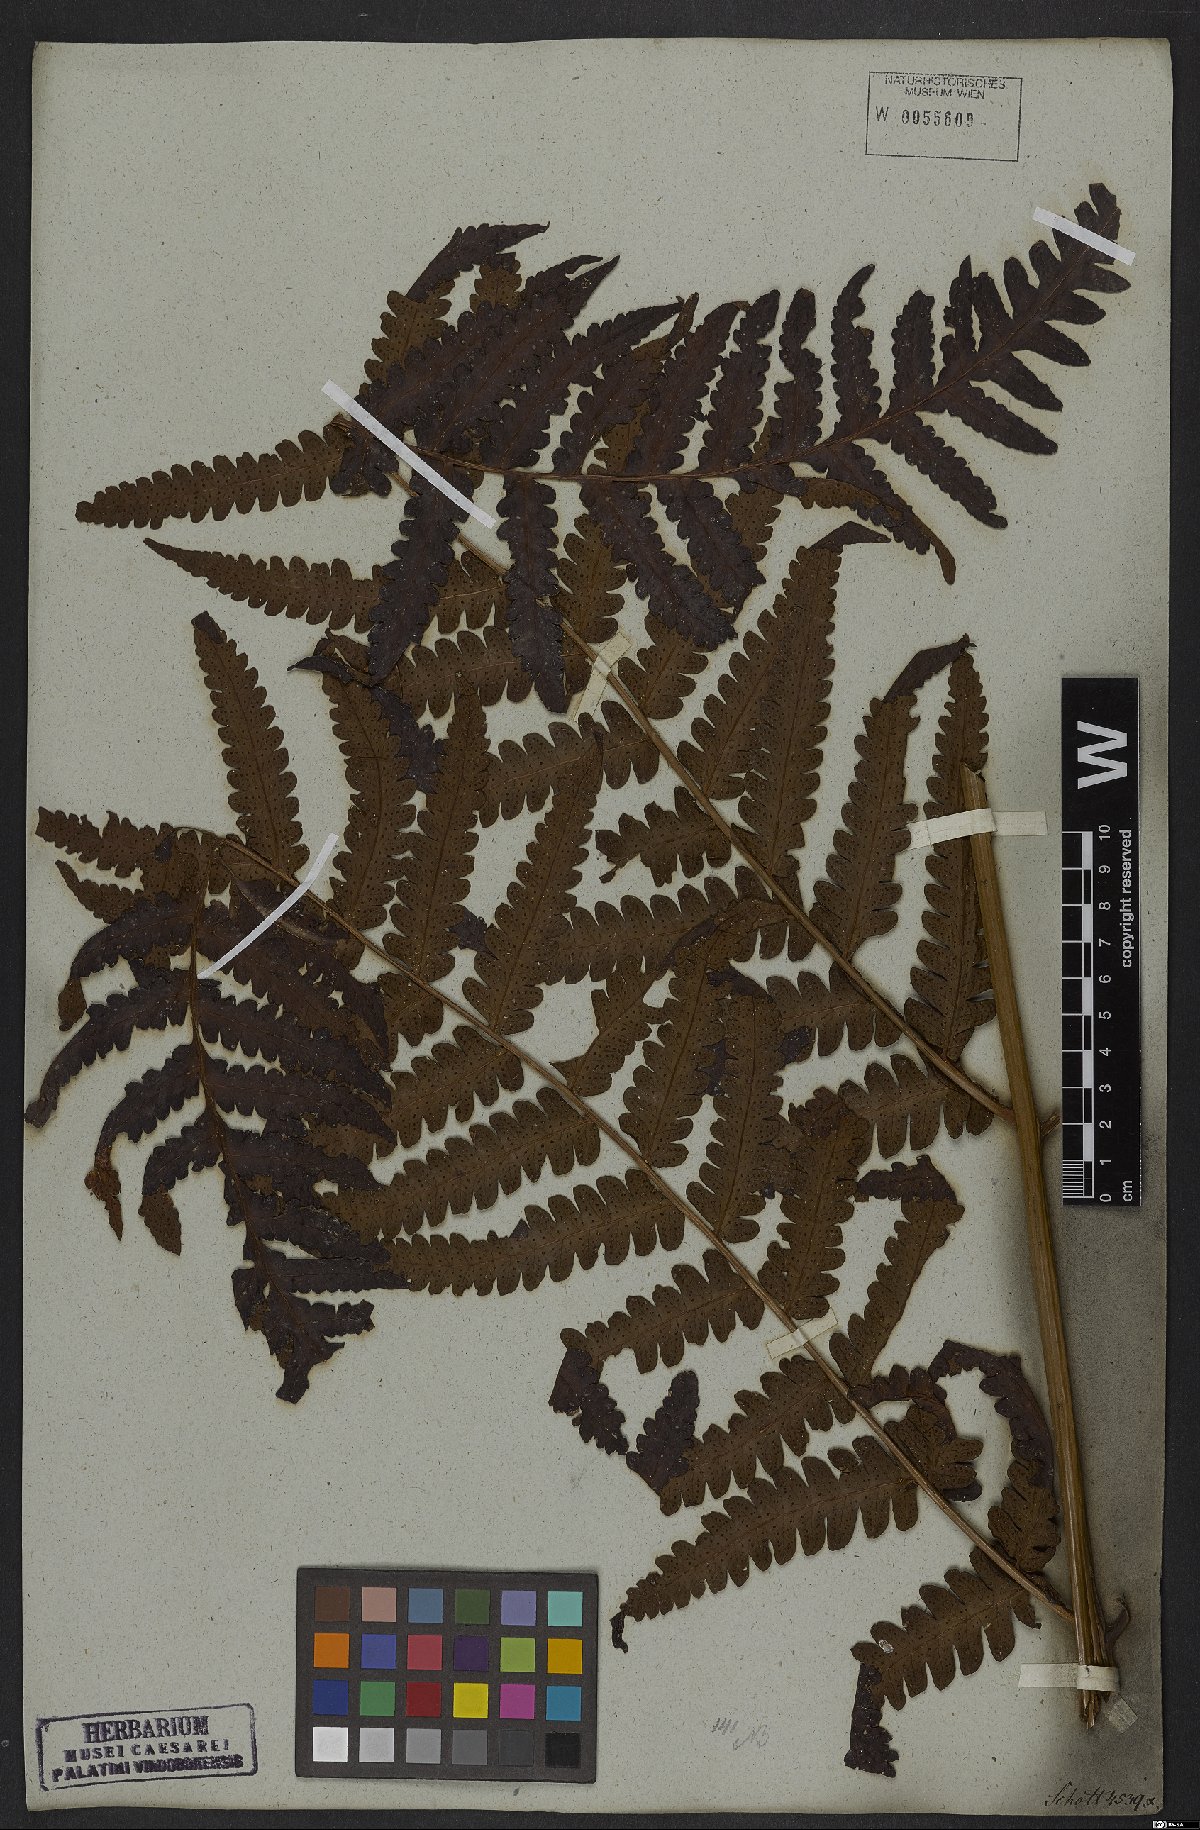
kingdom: Plantae
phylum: Tracheophyta
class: Polypodiopsida
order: Polypodiales
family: Dryopteridaceae
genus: Megalastrum
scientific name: Megalastrum connexum
